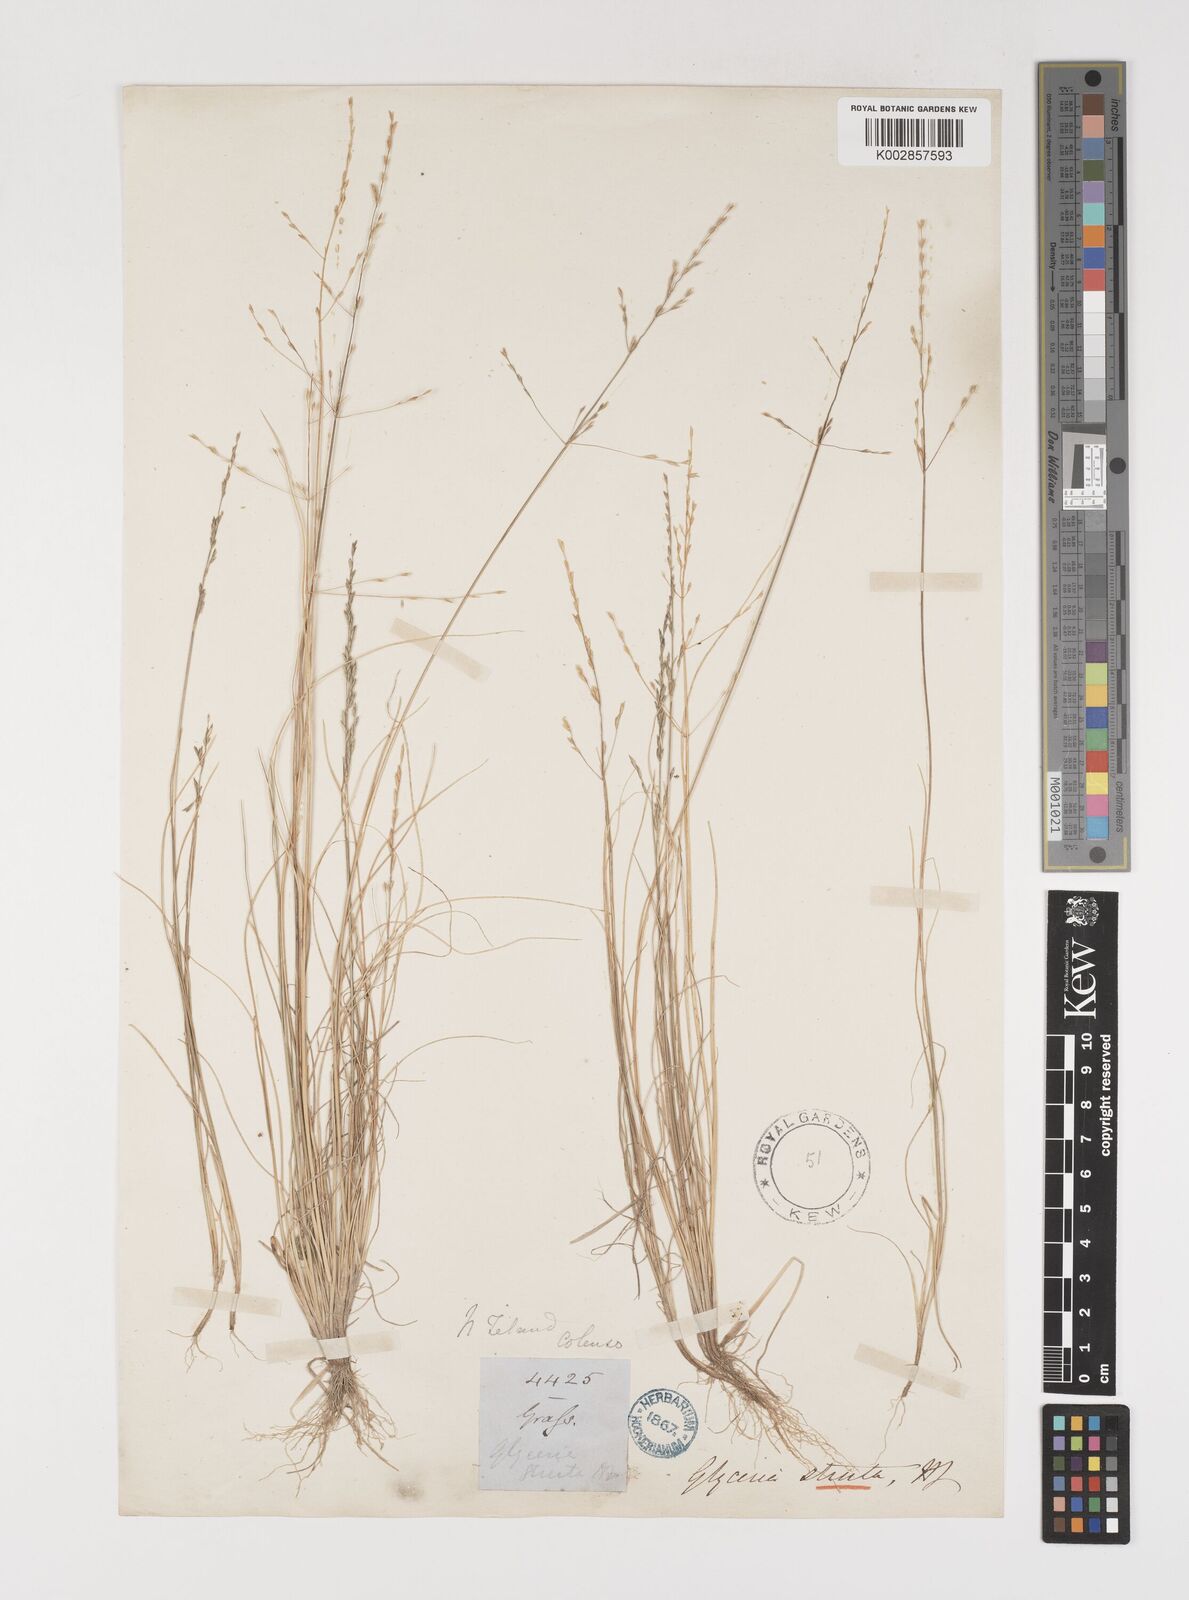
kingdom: Plantae
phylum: Tracheophyta
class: Liliopsida
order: Poales
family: Poaceae
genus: Sclerochloa
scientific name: Sclerochloa kengiana
